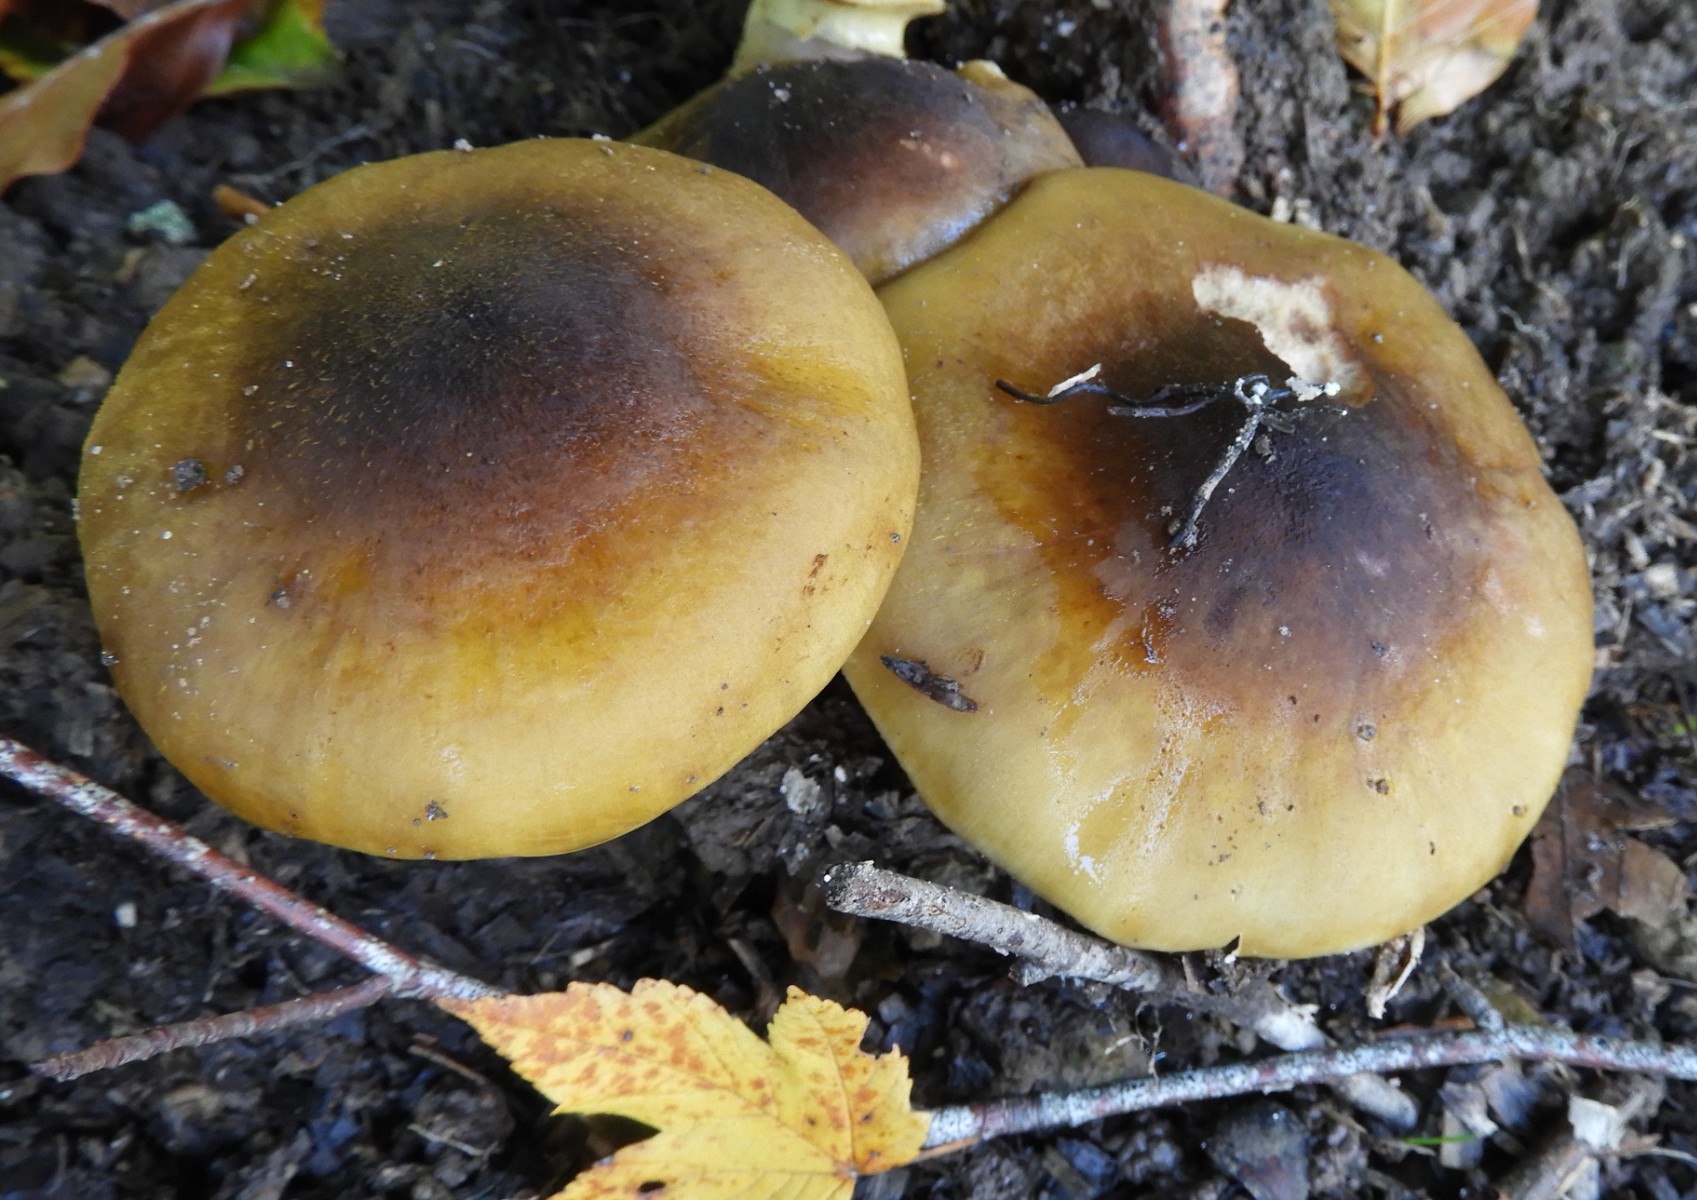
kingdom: Fungi
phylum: Basidiomycota
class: Agaricomycetes
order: Agaricales
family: Physalacriaceae
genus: Armillaria
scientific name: Armillaria mellea
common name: ægte honningsvamp
